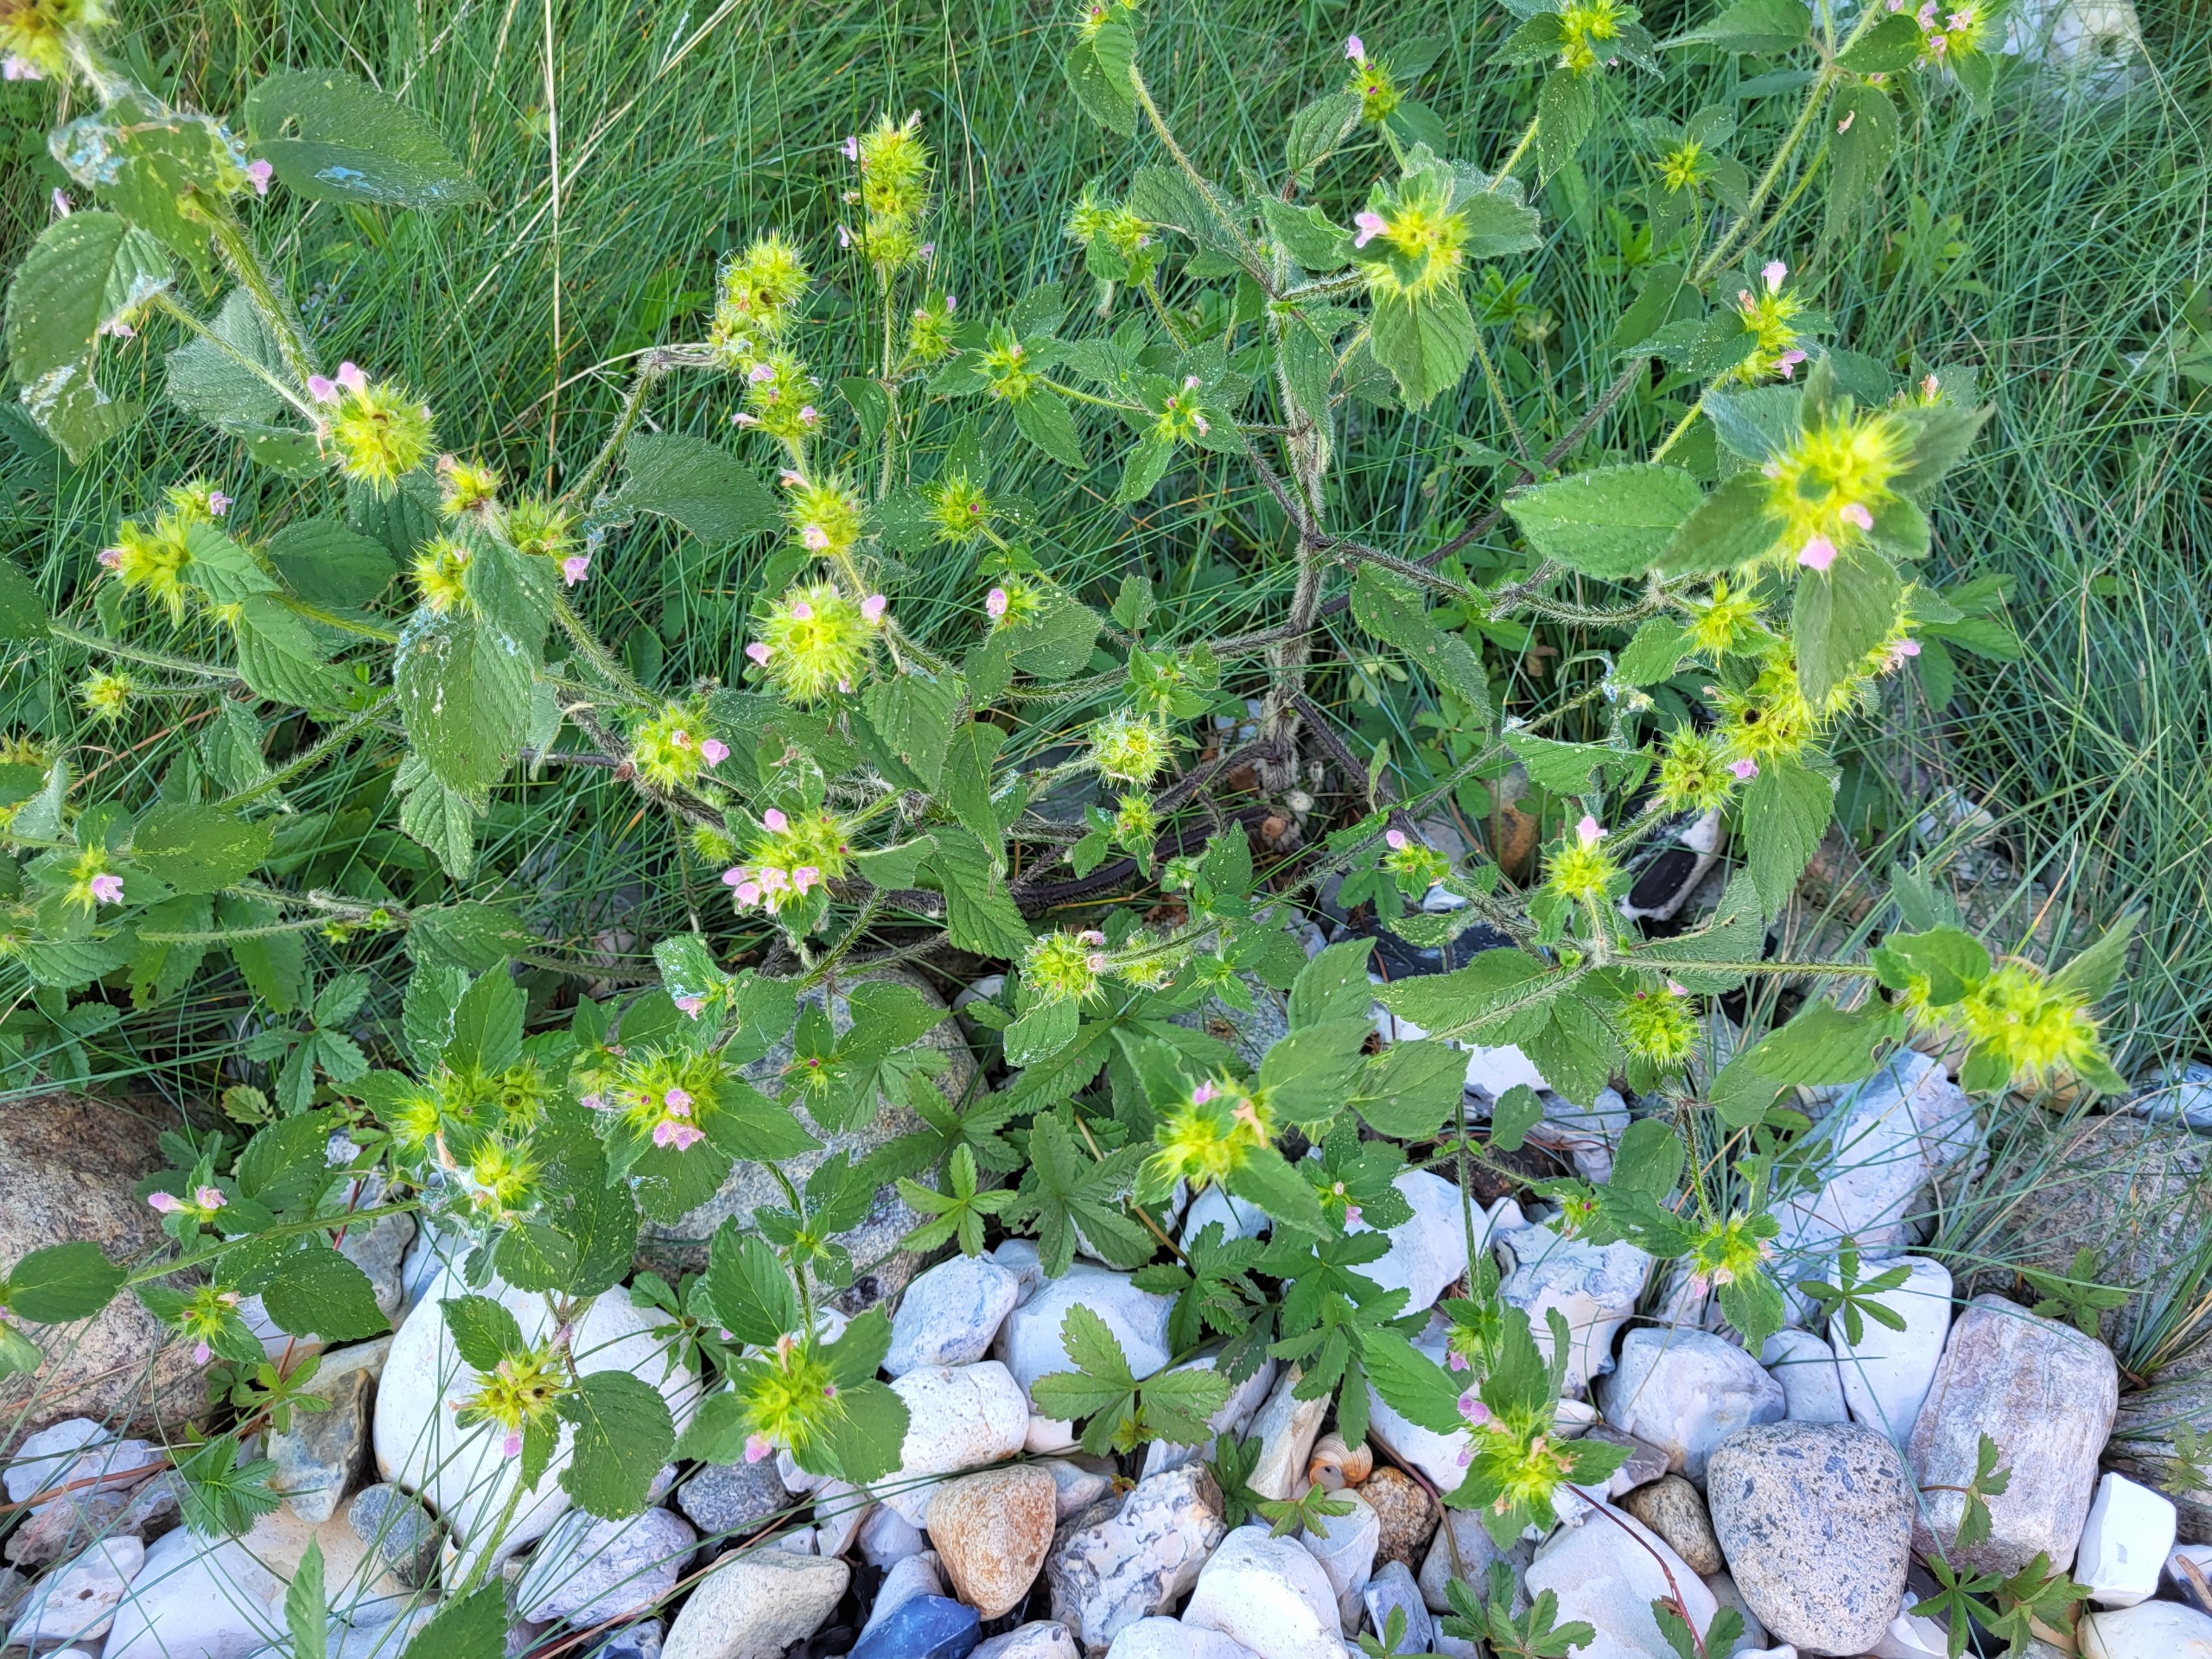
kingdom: Plantae
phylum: Tracheophyta
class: Magnoliopsida
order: Lamiales
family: Lamiaceae
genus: Galeopsis
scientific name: Galeopsis bifida
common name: Skov-hanekro
